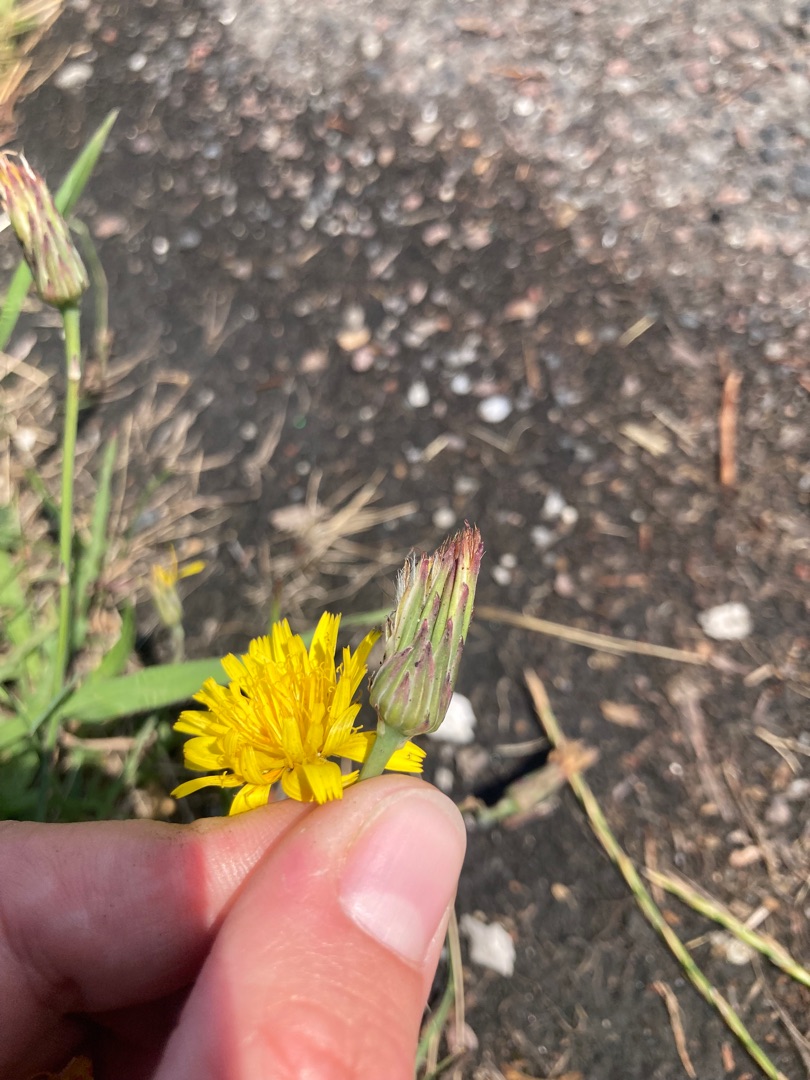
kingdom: Plantae
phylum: Tracheophyta
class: Magnoliopsida
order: Asterales
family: Asteraceae
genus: Hypochaeris
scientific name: Hypochaeris radicata
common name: Almindelig kongepen
